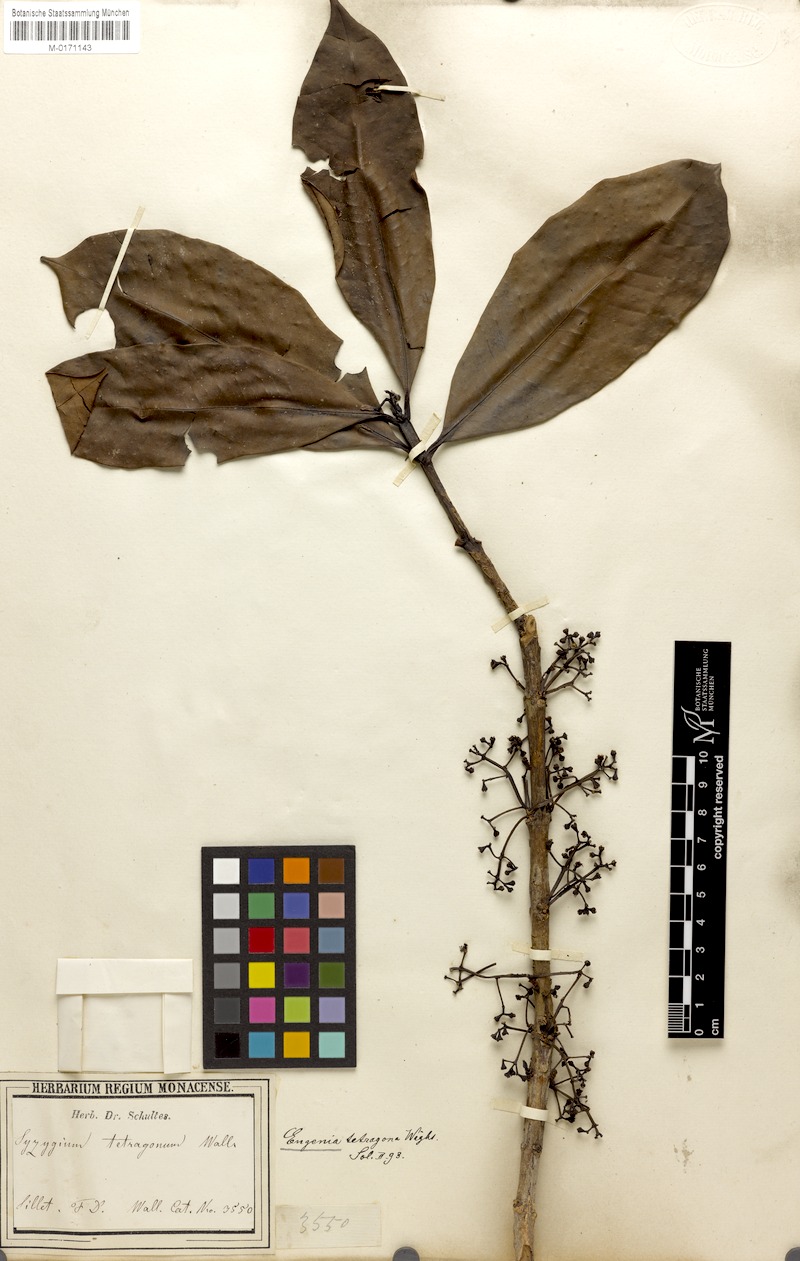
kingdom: Plantae
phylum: Tracheophyta
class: Magnoliopsida
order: Myrtales
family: Myrtaceae
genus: Syzygium
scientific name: Syzygium tetragonum
